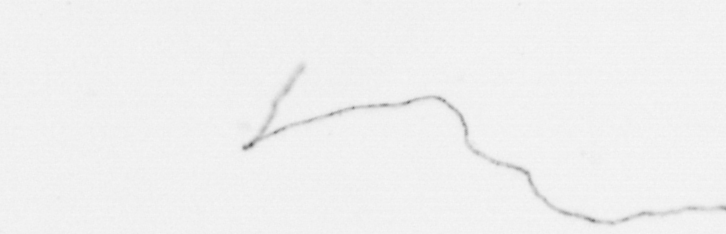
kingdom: Chromista
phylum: Ochrophyta
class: Bacillariophyceae
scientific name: Bacillariophyceae
